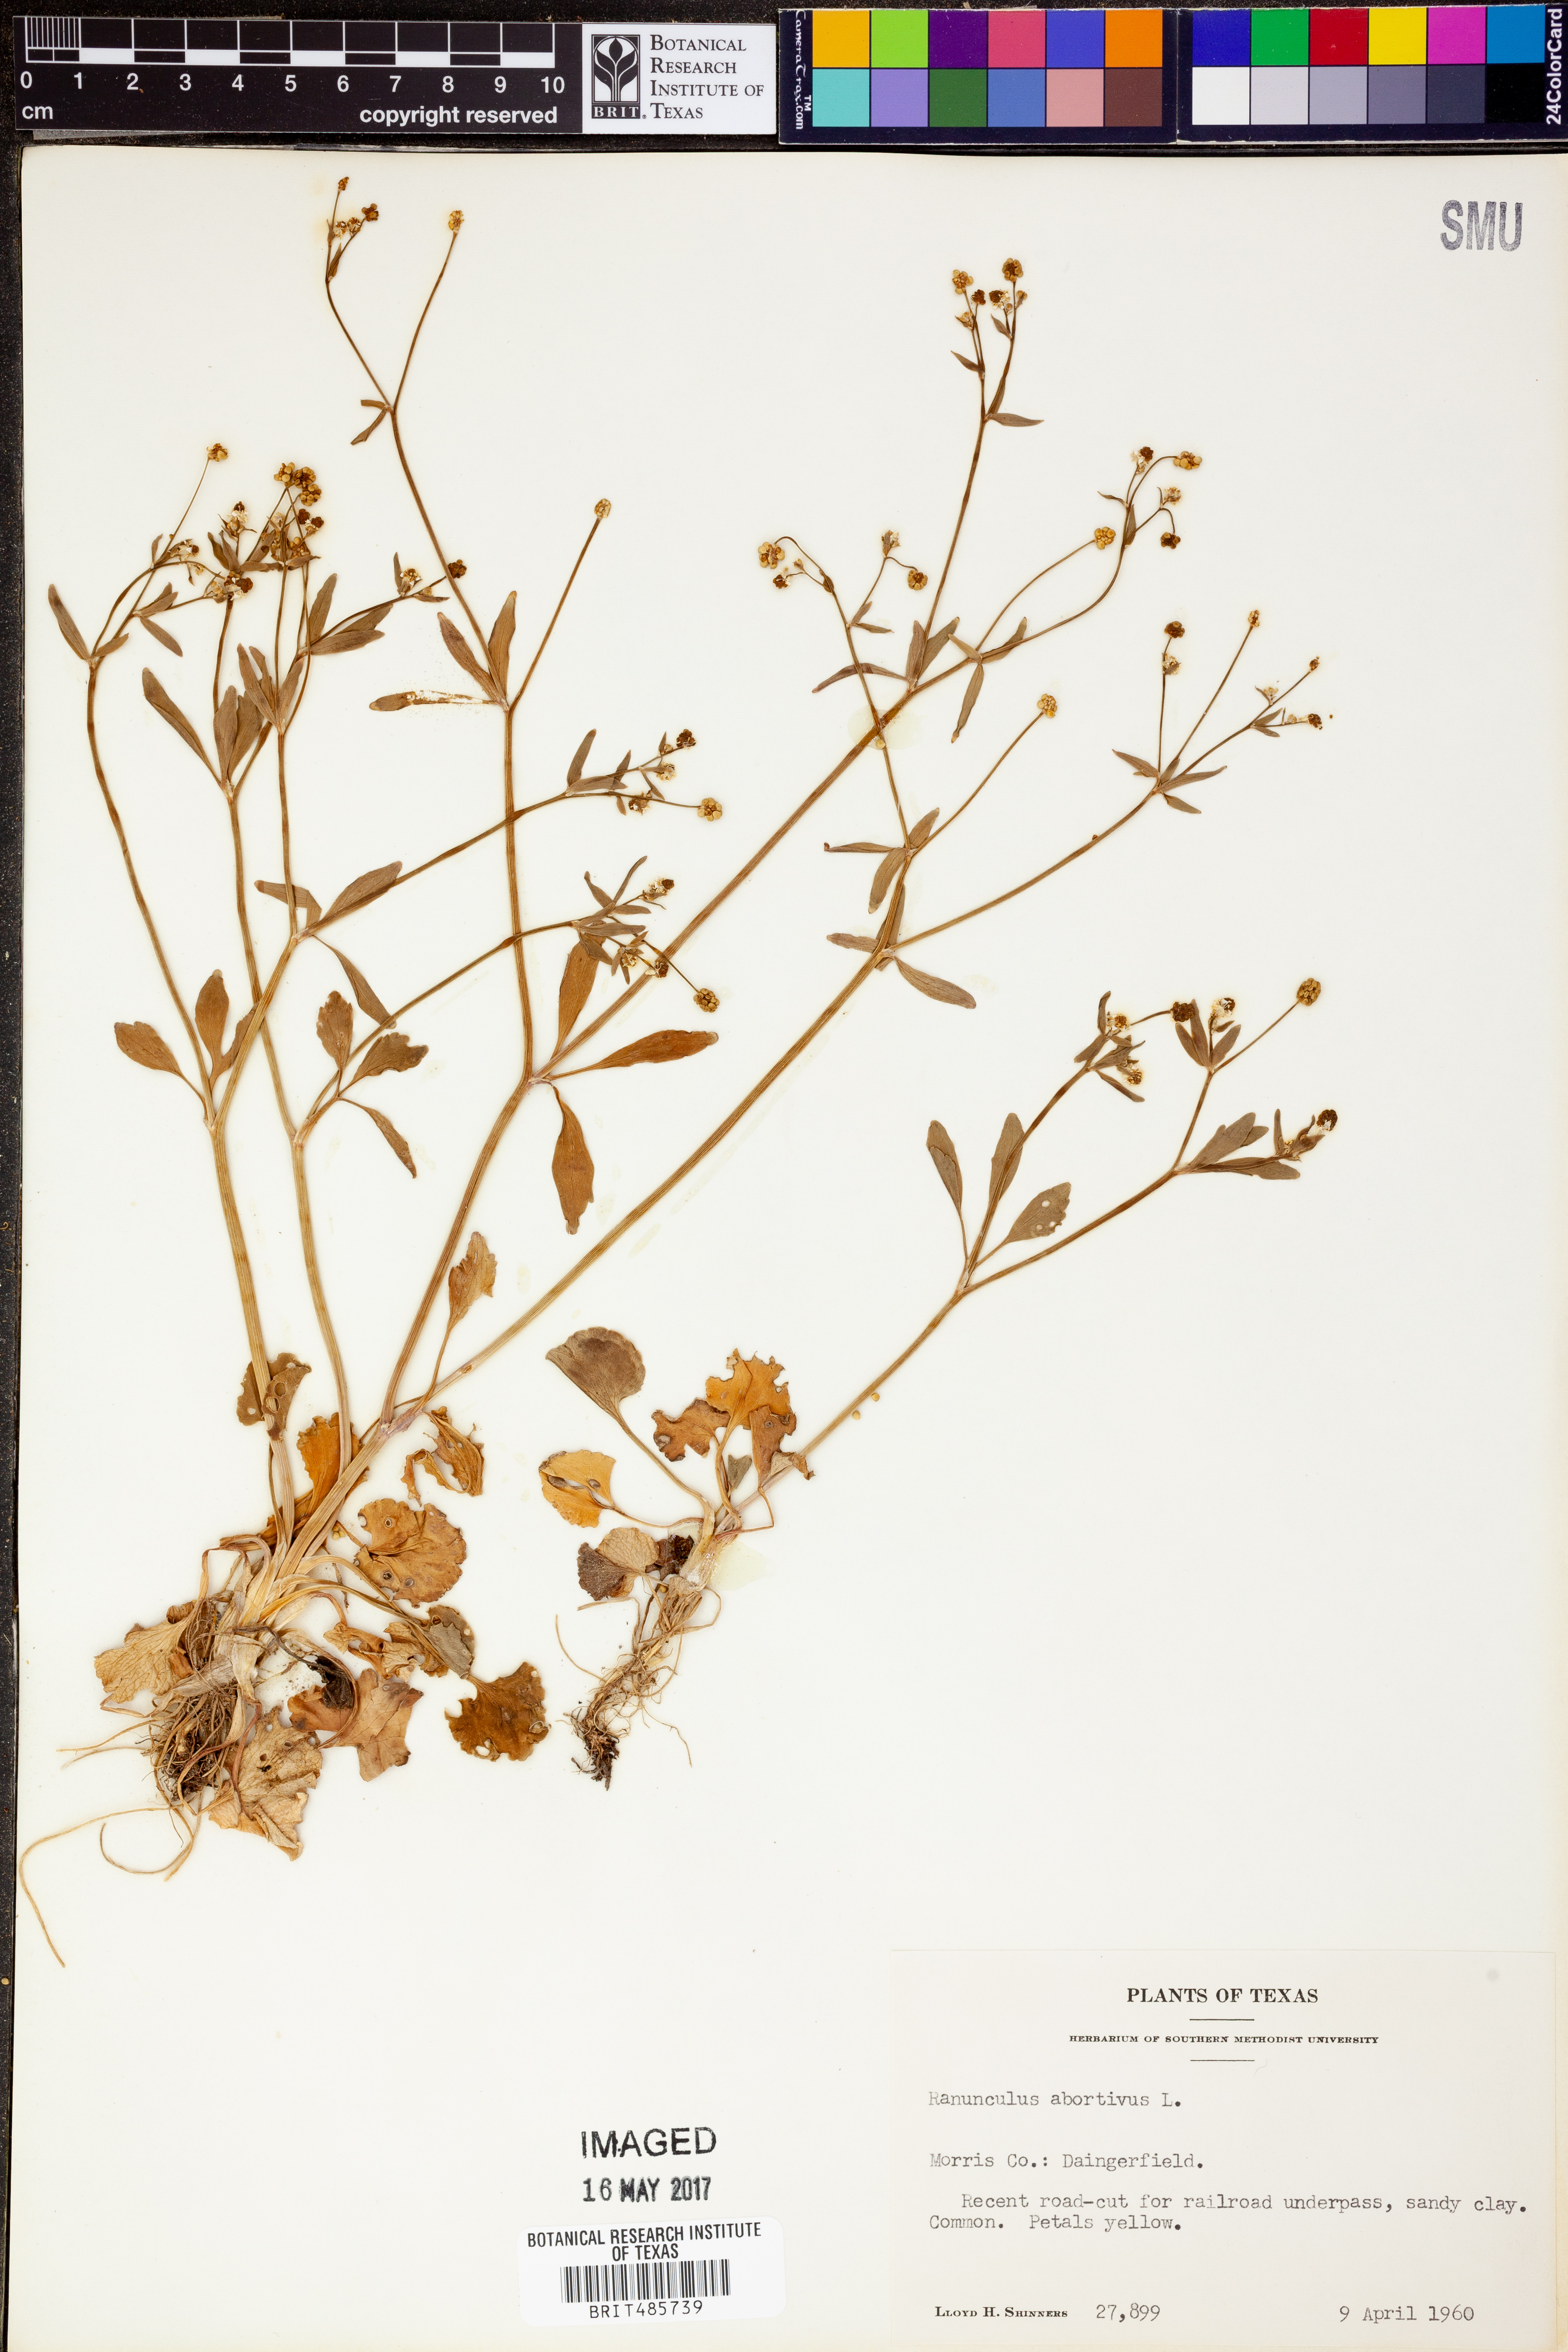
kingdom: Plantae
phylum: Tracheophyta
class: Magnoliopsida
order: Ranunculales
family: Ranunculaceae
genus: Ranunculus
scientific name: Ranunculus abortivus
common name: Early wood buttercup
